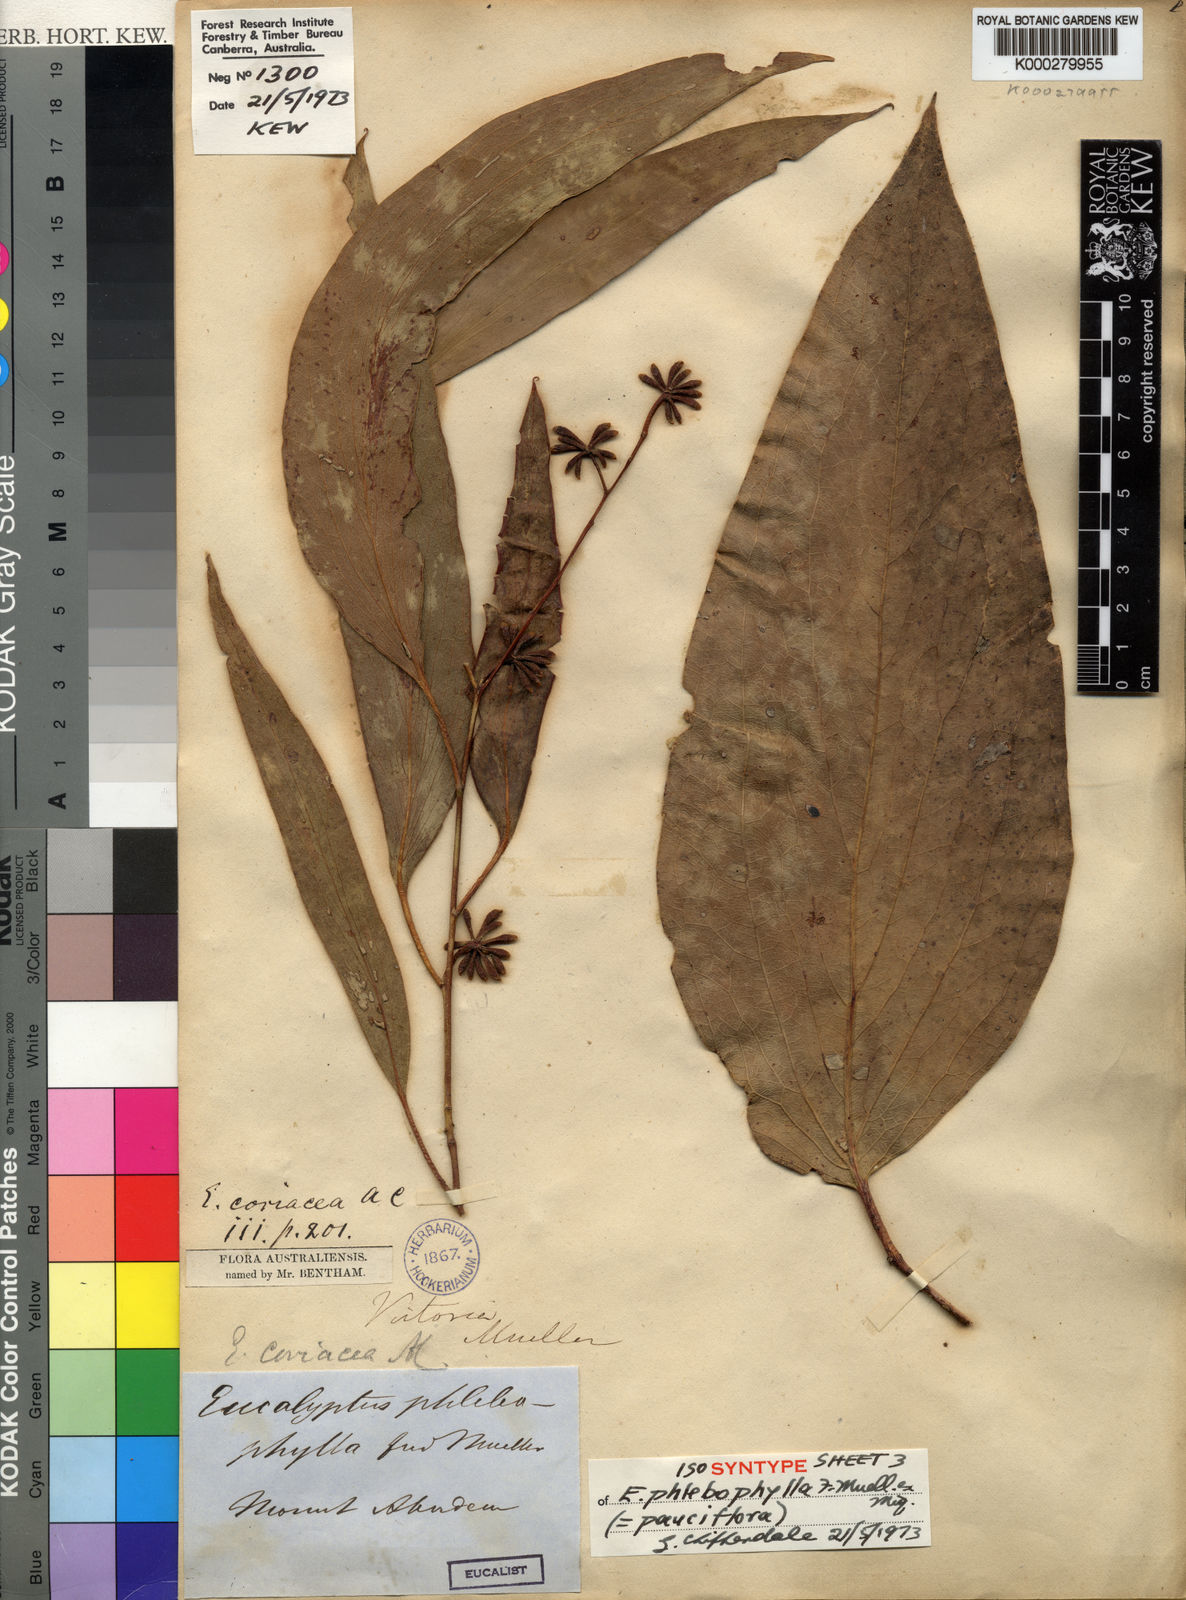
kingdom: Plantae
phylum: Tracheophyta
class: Magnoliopsida
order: Myrtales
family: Myrtaceae
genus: Eucalyptus
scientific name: Eucalyptus pauciflora
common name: Snow gum
